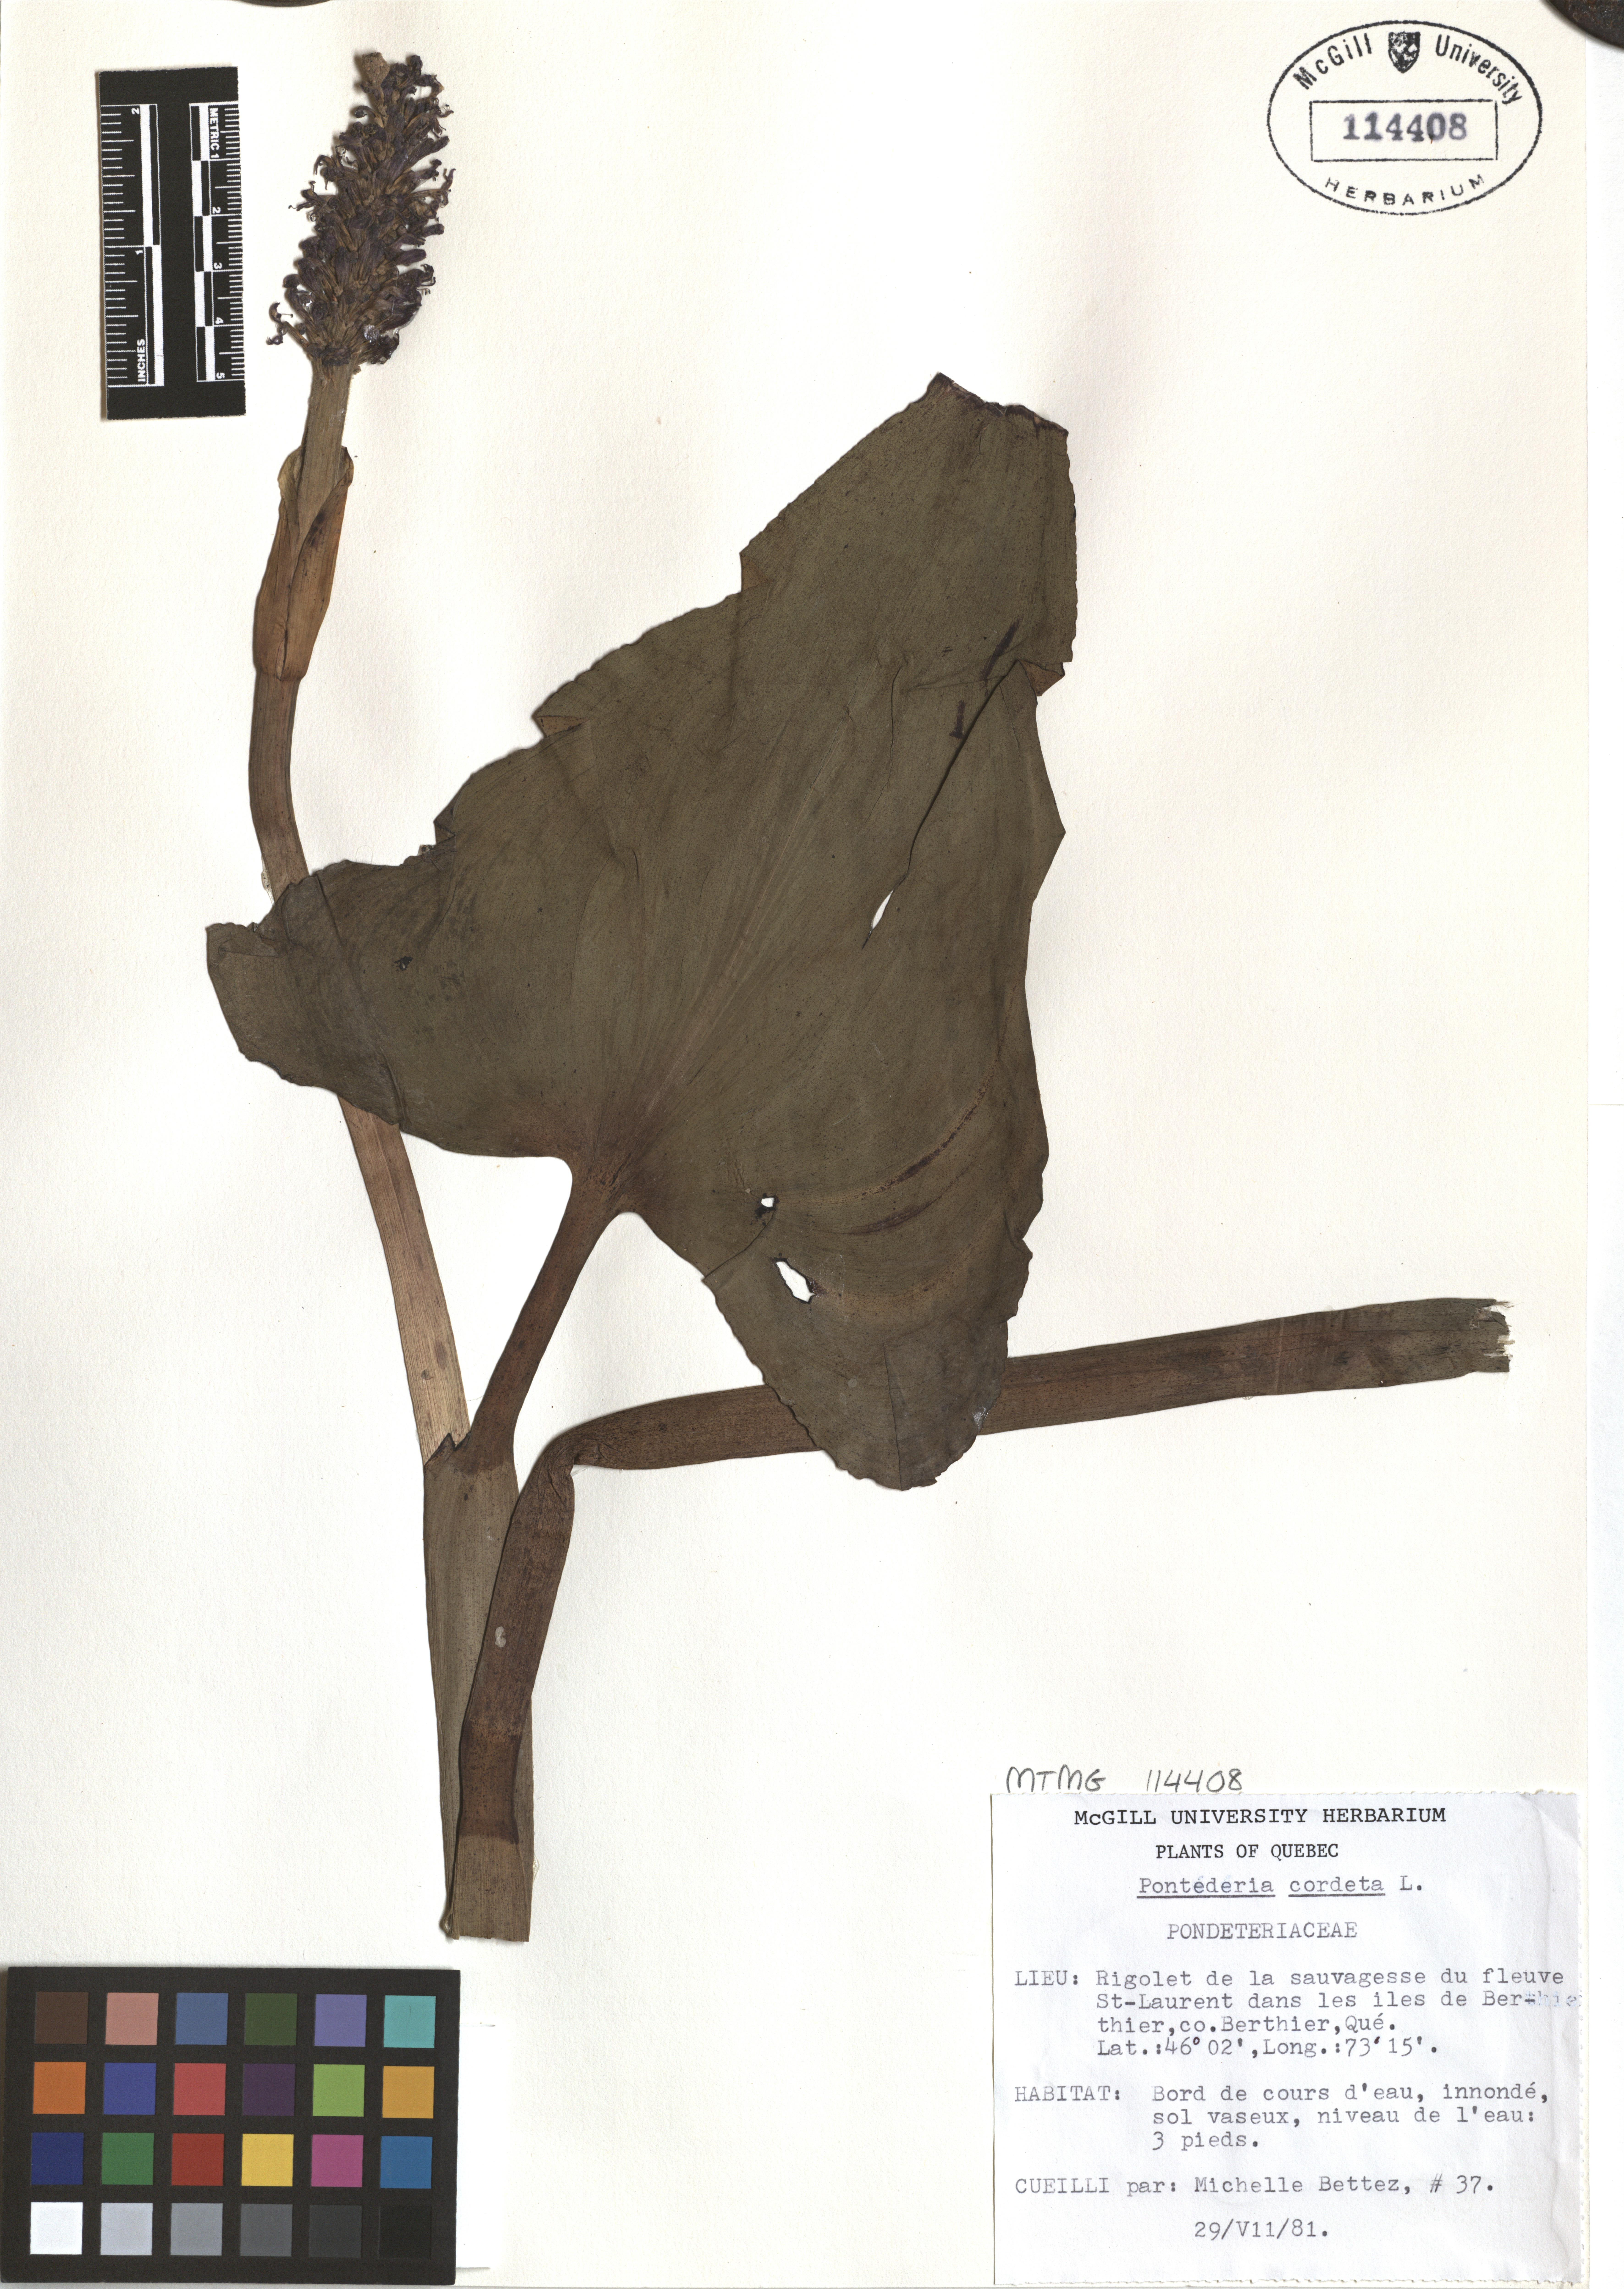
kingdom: Plantae
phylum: Tracheophyta
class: Liliopsida
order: Commelinales
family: Pontederiaceae
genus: Pontederia
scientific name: Pontederia cordata
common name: Pickerelweed
